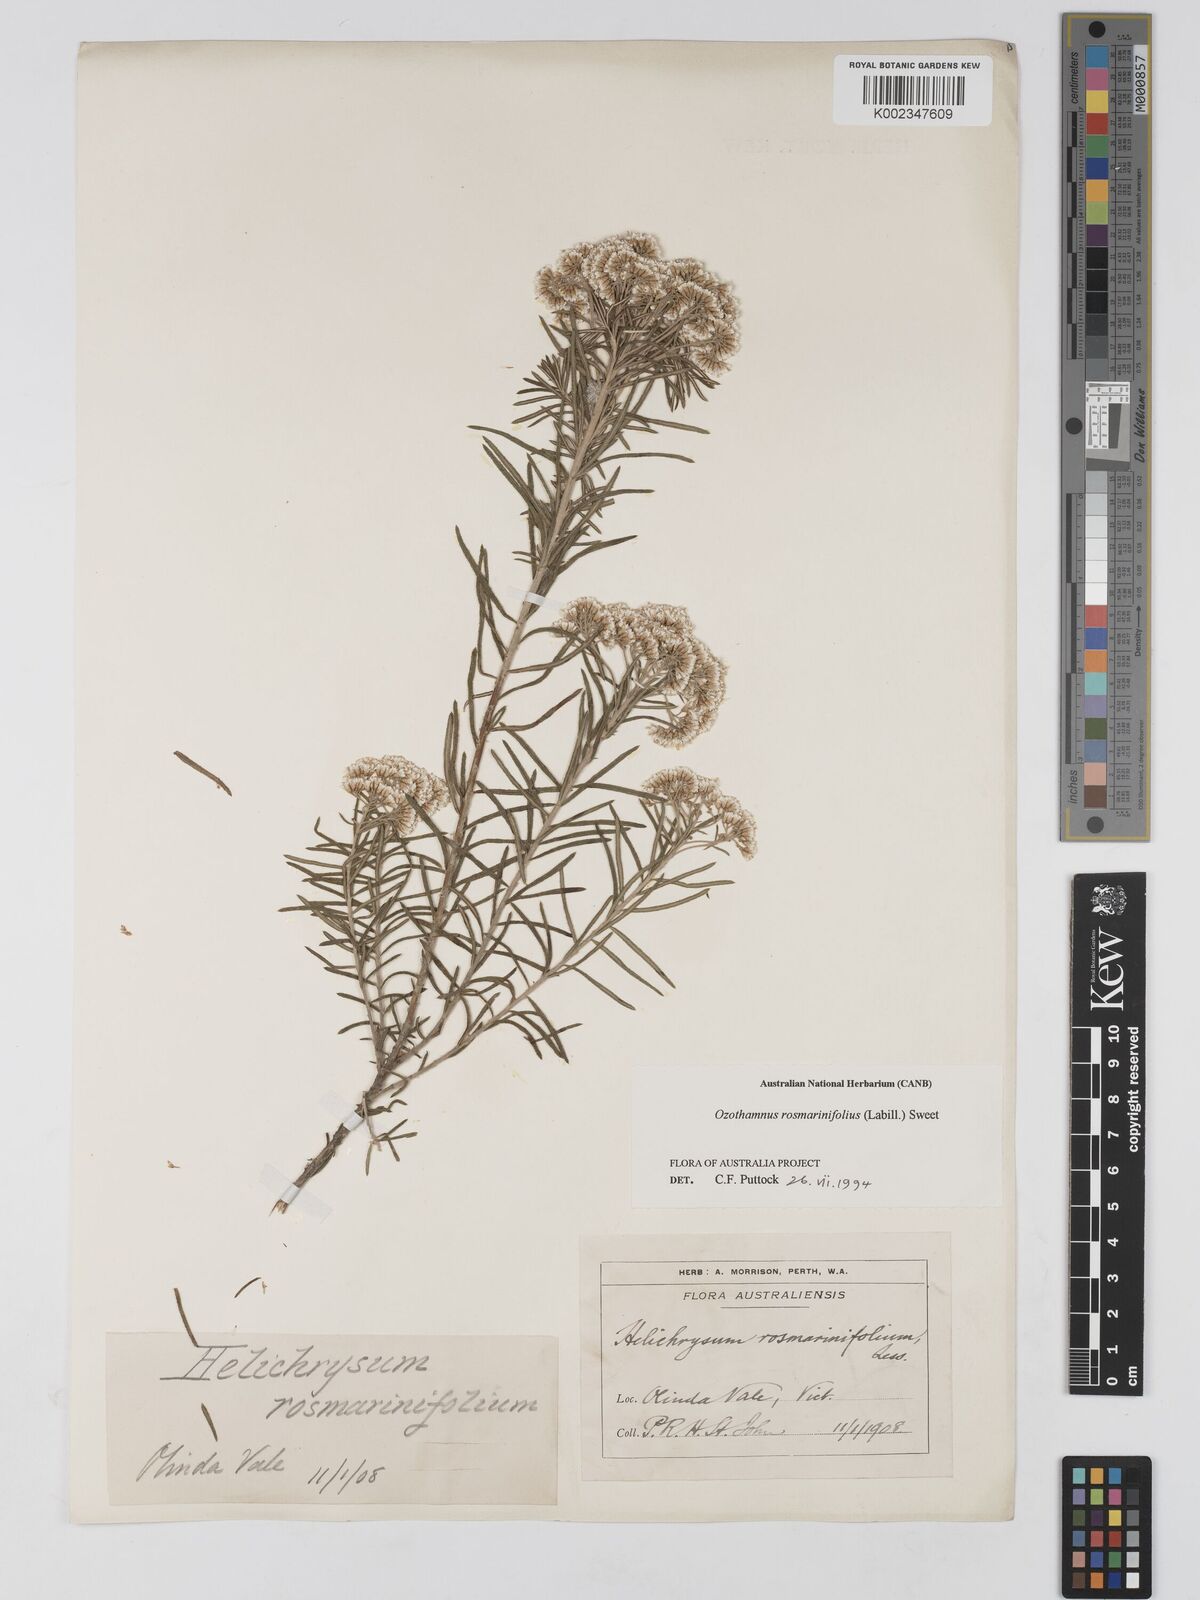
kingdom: Plantae
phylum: Tracheophyta
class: Magnoliopsida
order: Asterales
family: Asteraceae
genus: Ozothamnus
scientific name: Ozothamnus rosmarinifolius
